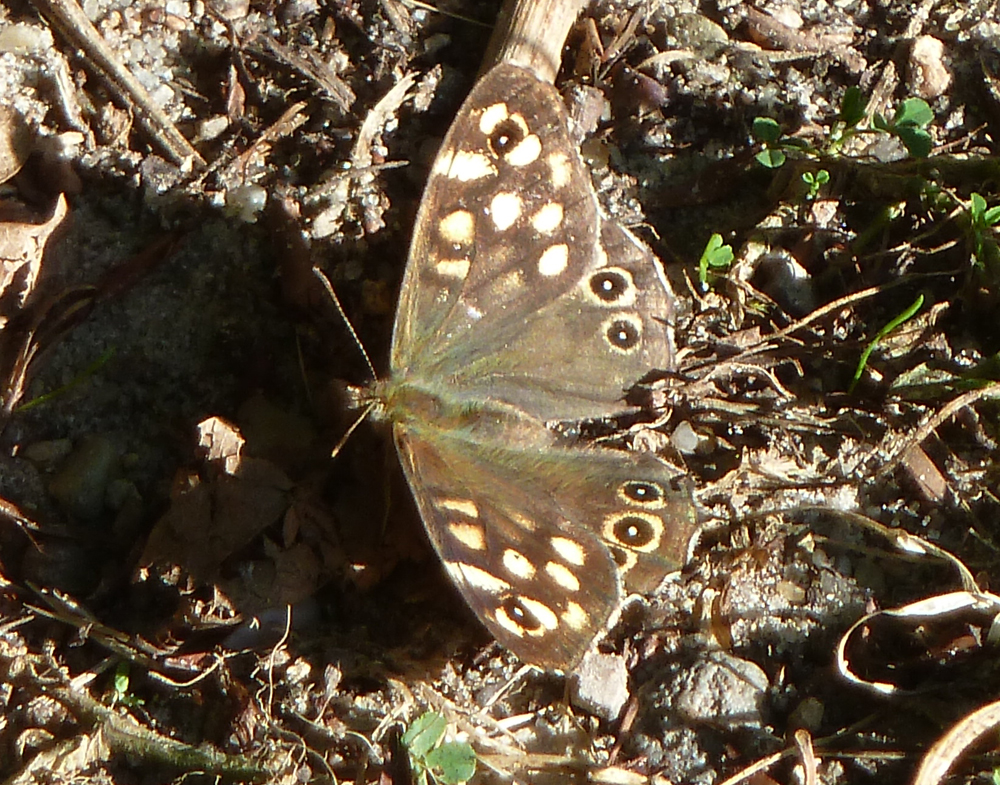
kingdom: Animalia
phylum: Arthropoda
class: Insecta
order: Lepidoptera
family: Nymphalidae
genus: Pararge
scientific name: Pararge aegeria
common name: Speckled wood
